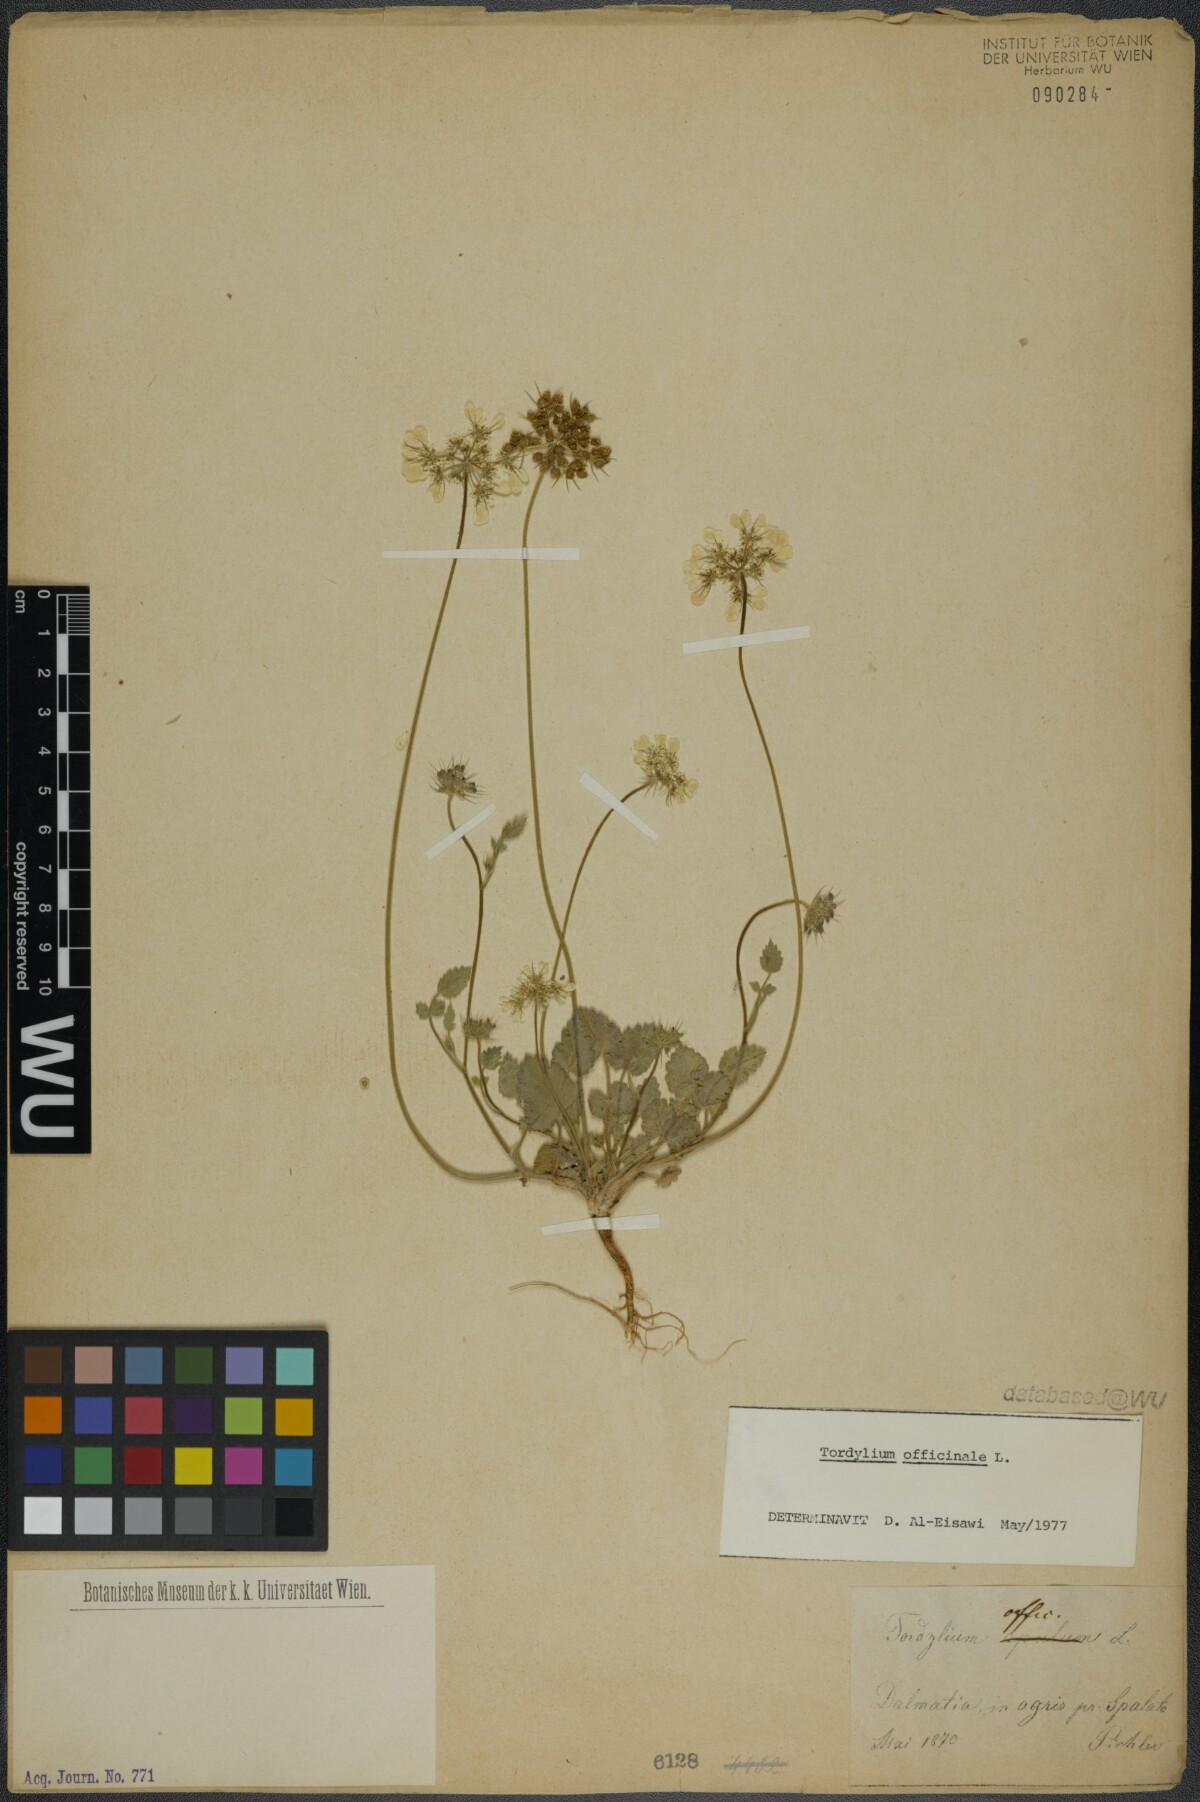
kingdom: Plantae
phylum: Tracheophyta
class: Magnoliopsida
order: Apiales
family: Apiaceae
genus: Tordylium
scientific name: Tordylium officinale
